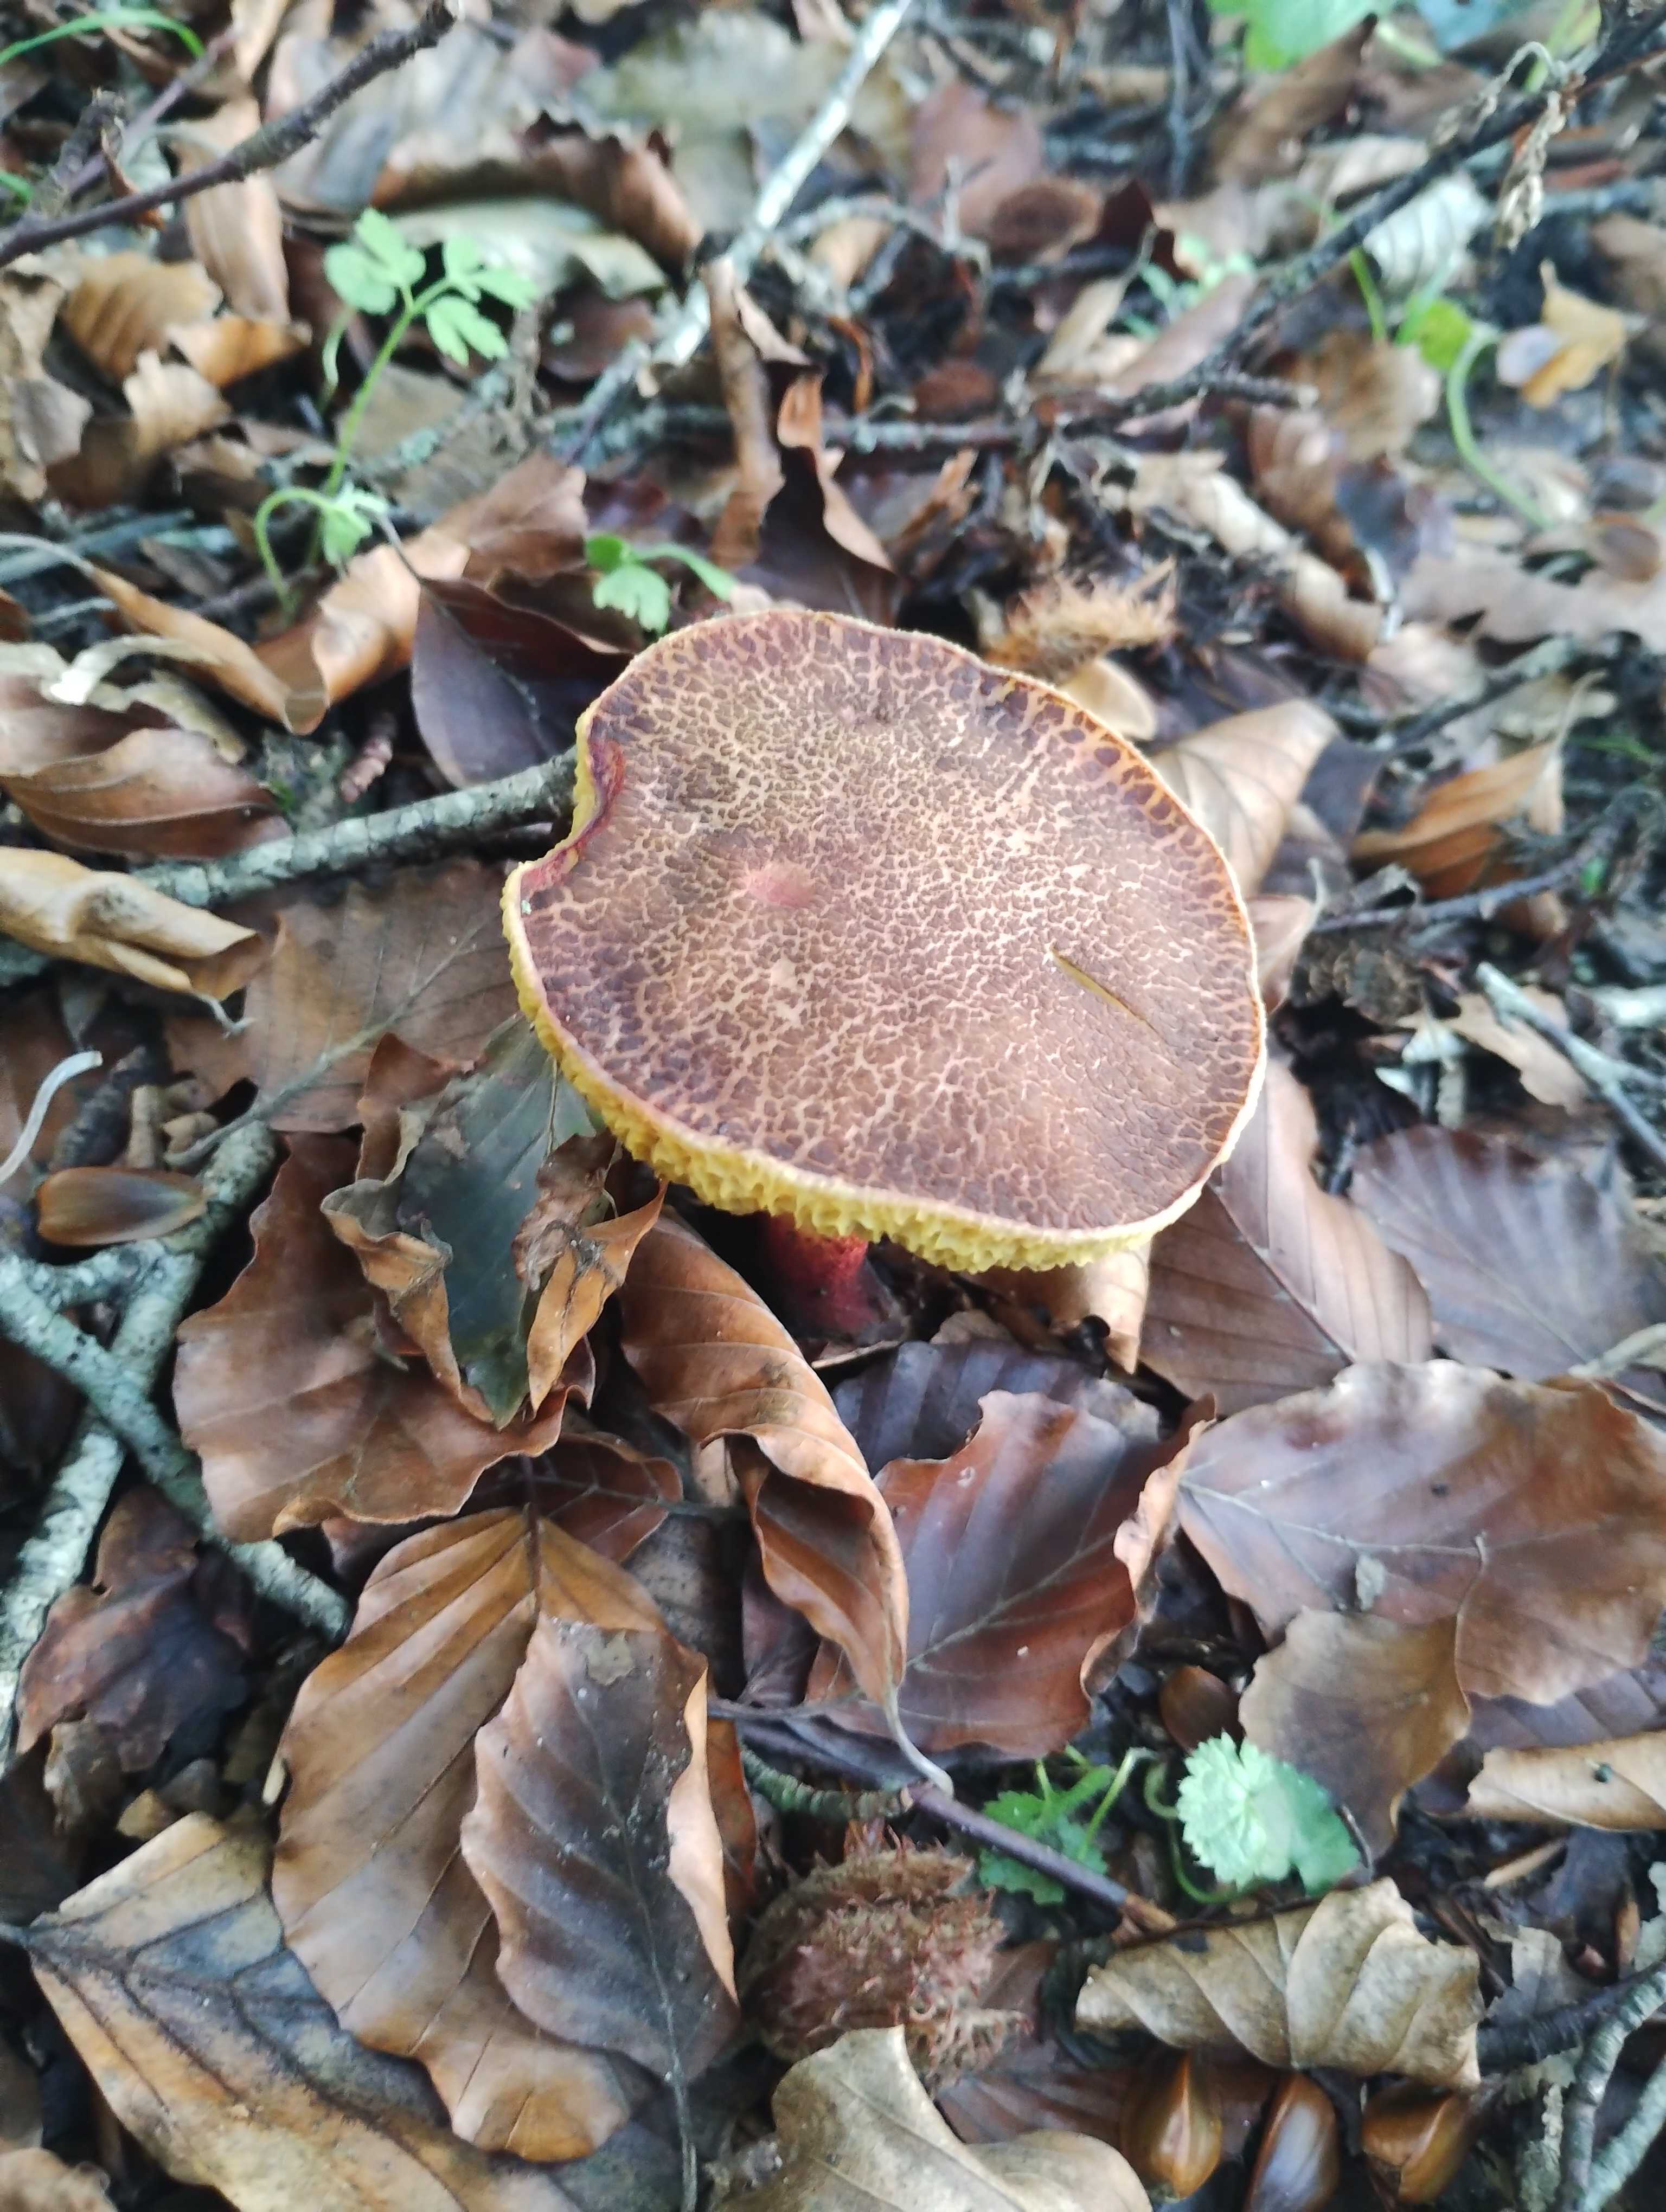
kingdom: Fungi
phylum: Basidiomycota
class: Agaricomycetes
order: Boletales
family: Boletaceae
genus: Xerocomellus
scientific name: Xerocomellus
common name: dværgrørhat
